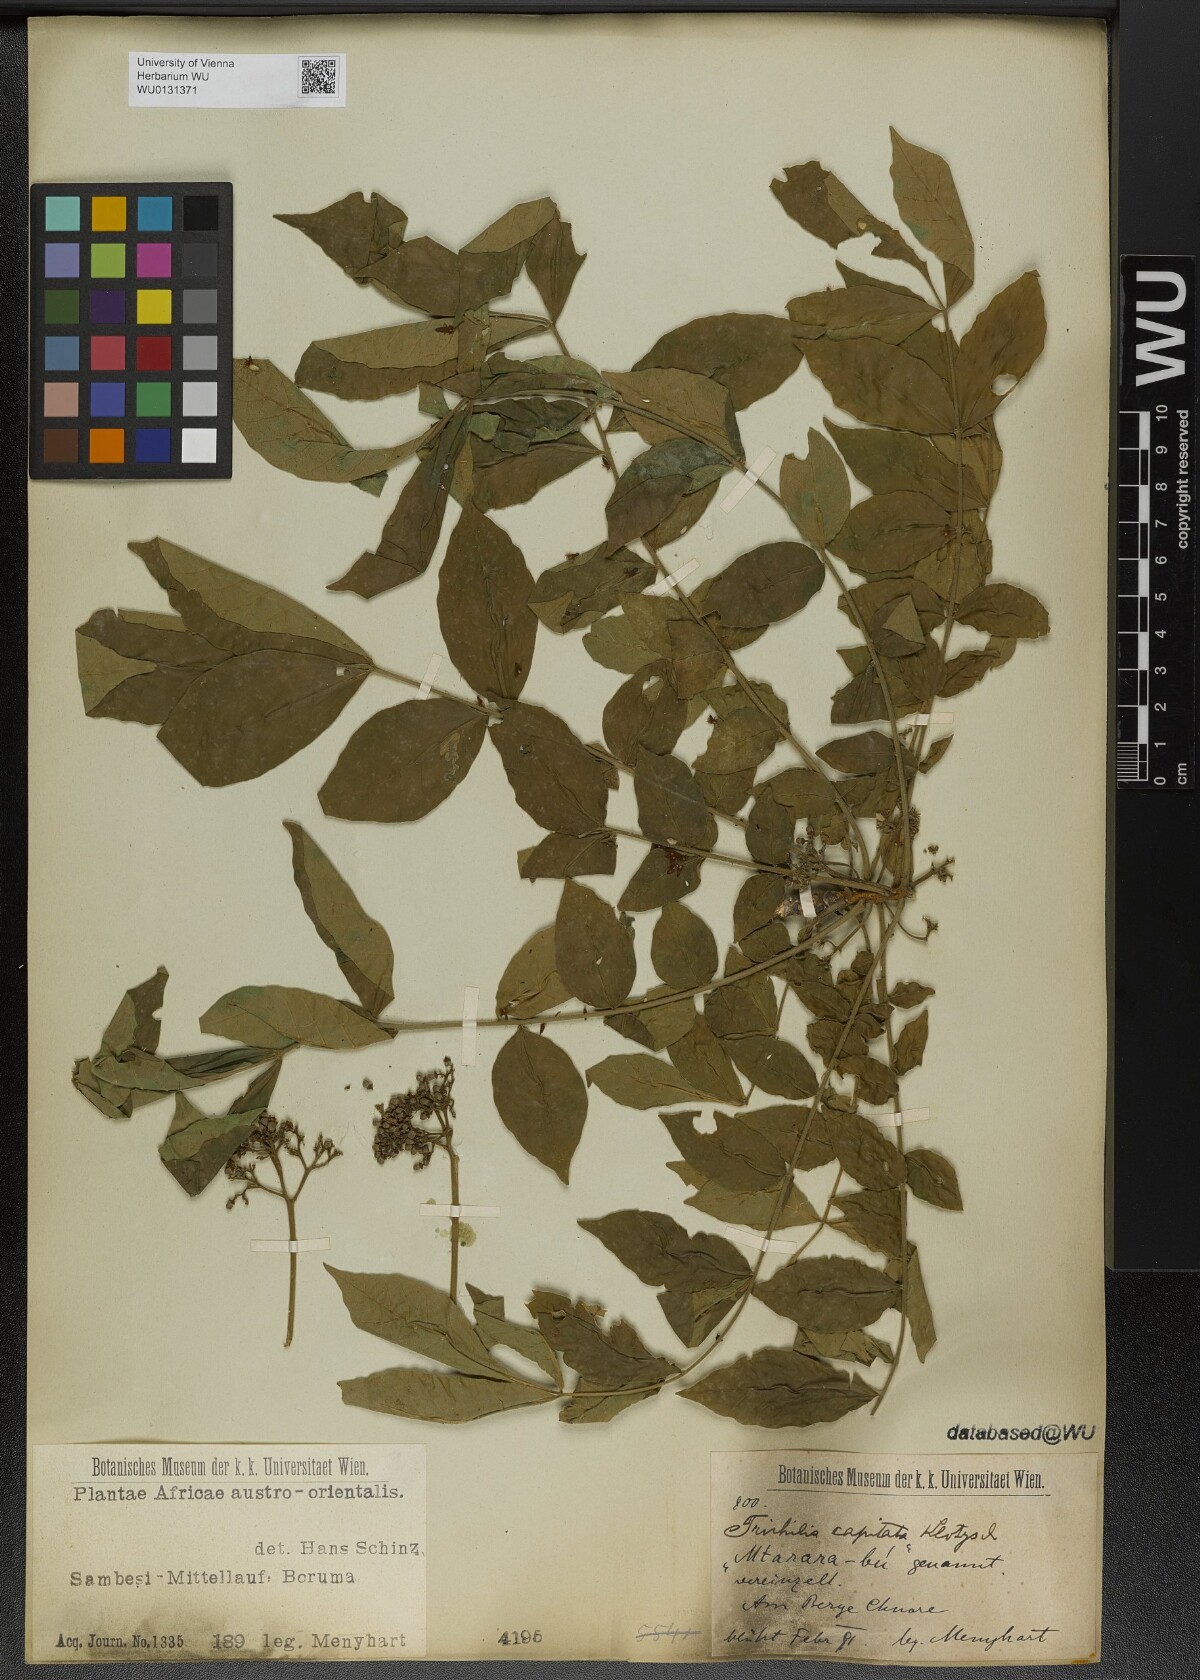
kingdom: Plantae
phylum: Tracheophyta
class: Magnoliopsida
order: Sapindales
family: Meliaceae
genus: Trichilia
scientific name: Trichilia capitata
